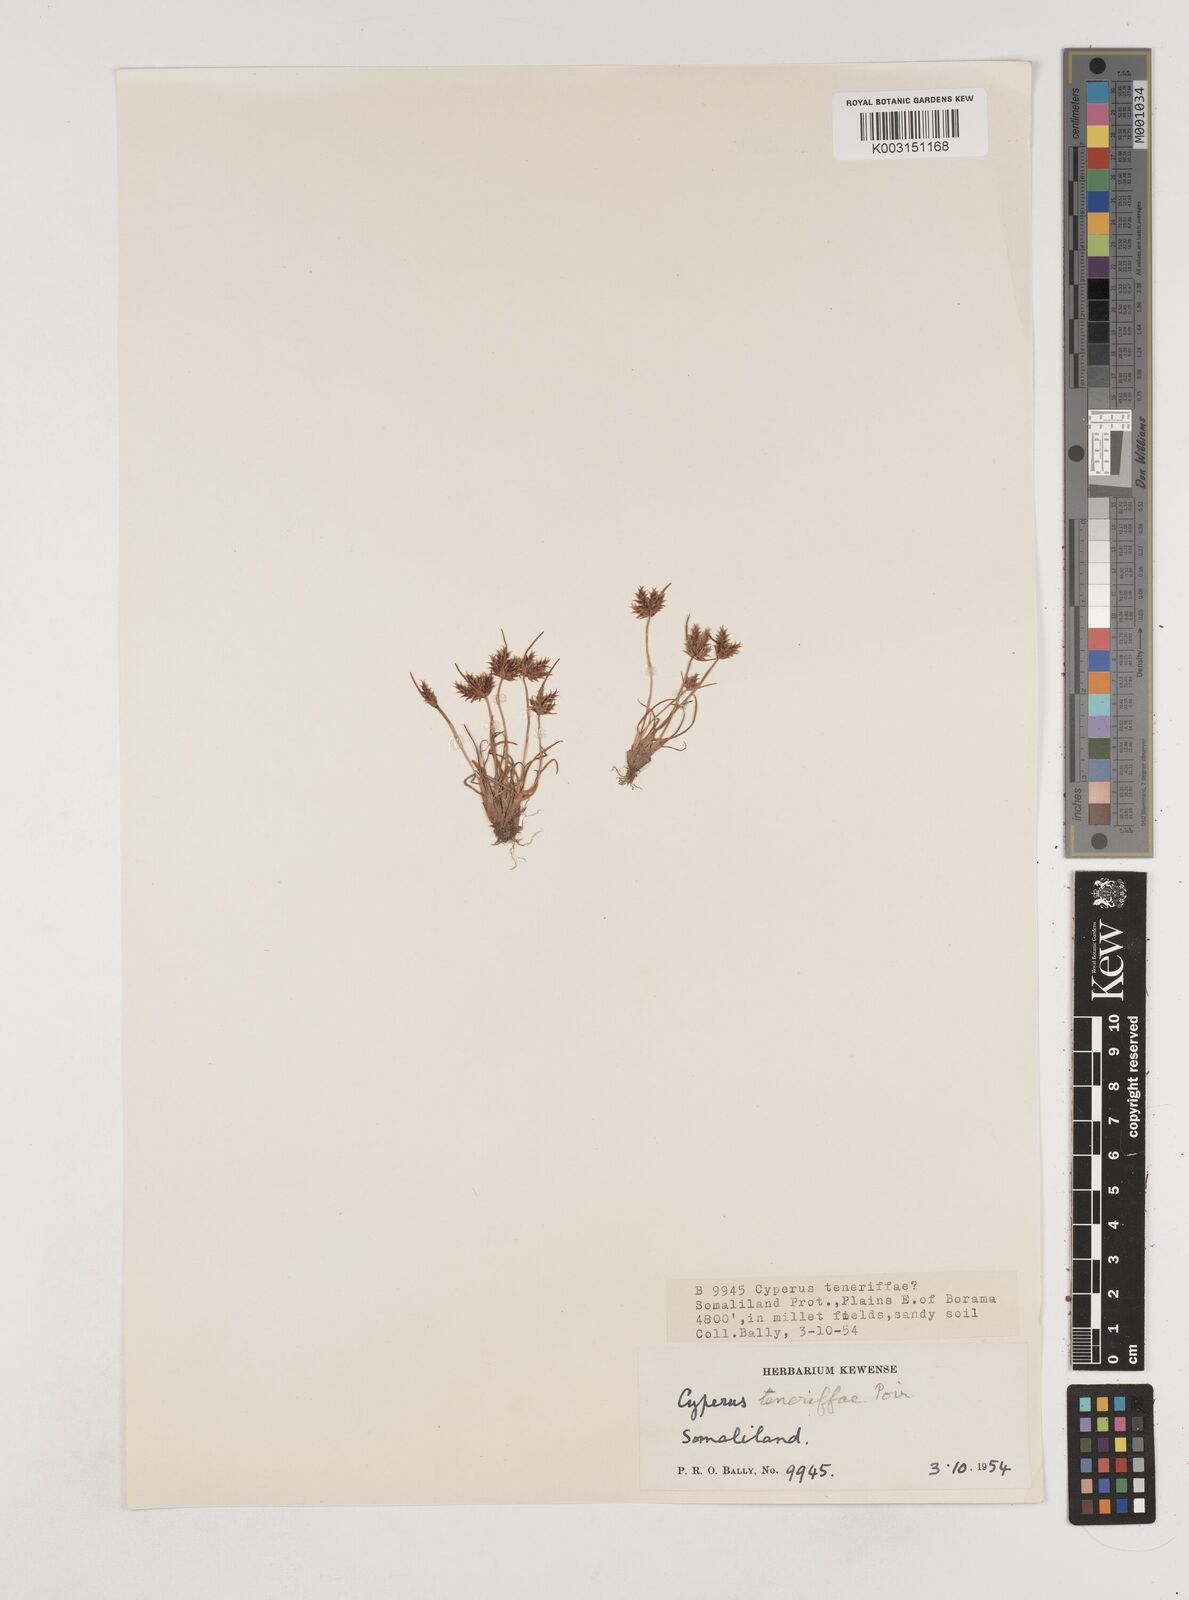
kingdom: Plantae
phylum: Tracheophyta
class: Liliopsida
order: Poales
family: Cyperaceae
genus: Cyperus
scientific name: Cyperus rubicundus
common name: Coco-grass
